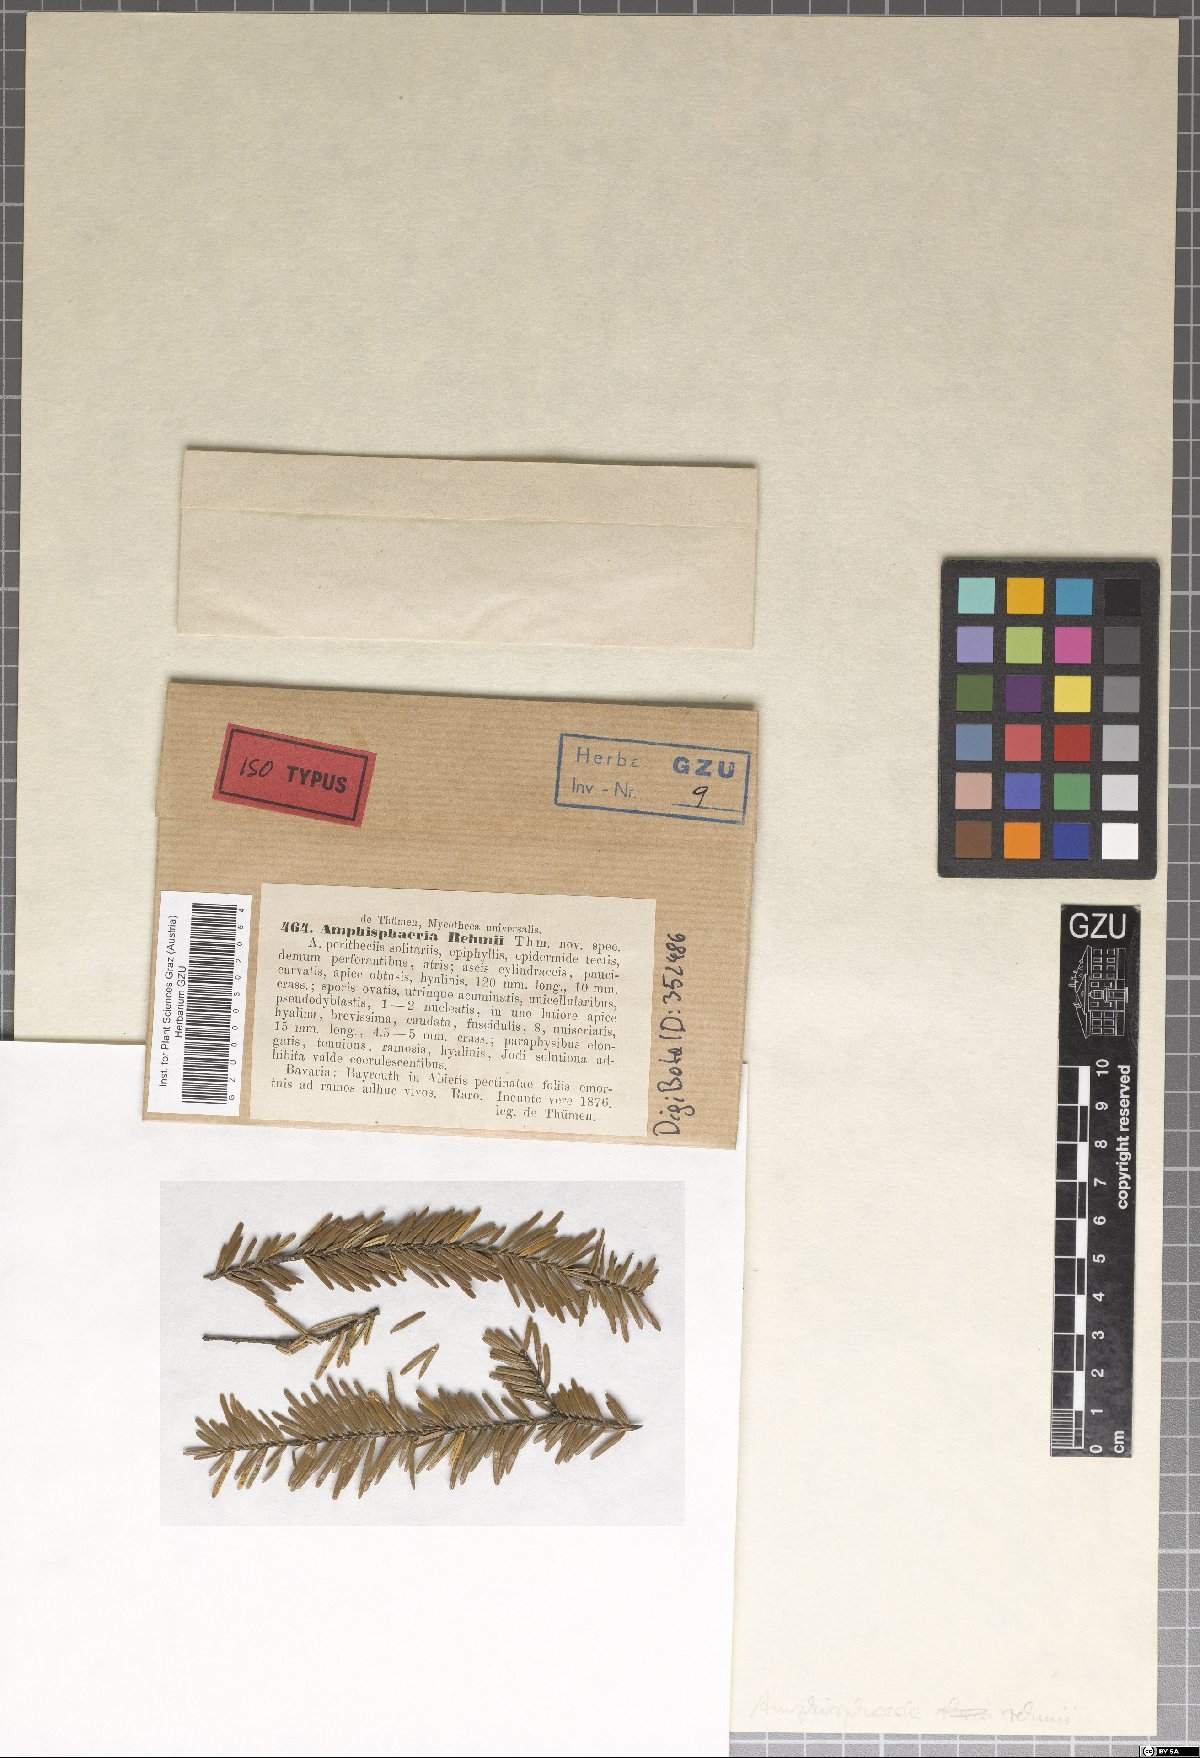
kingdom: Fungi
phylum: Ascomycota
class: Sordariomycetes
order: Xylariales
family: Xylariaceae
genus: Anthostomella
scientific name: Anthostomella formosa
